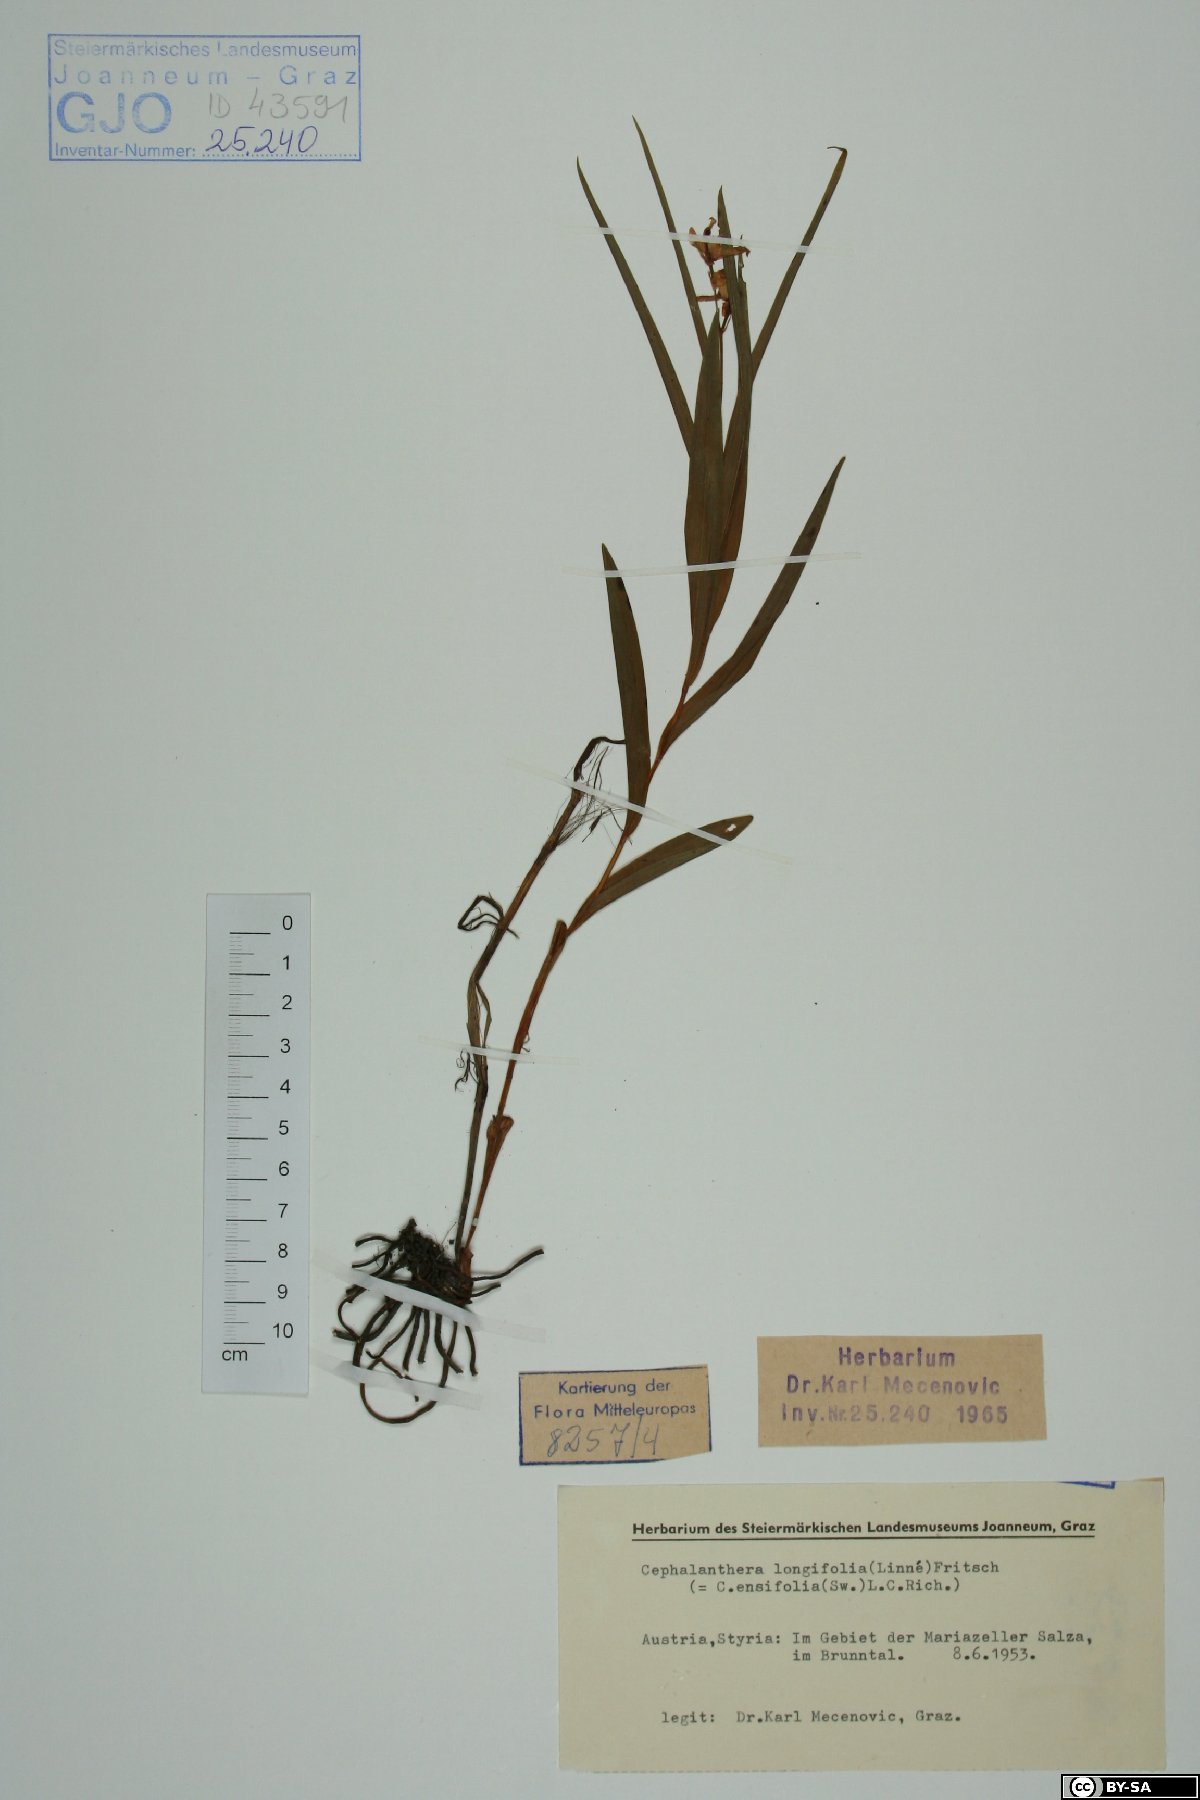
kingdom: Plantae
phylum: Tracheophyta
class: Liliopsida
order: Asparagales
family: Orchidaceae
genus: Cephalanthera
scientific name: Cephalanthera longifolia
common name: Narrow-leaved helleborine
